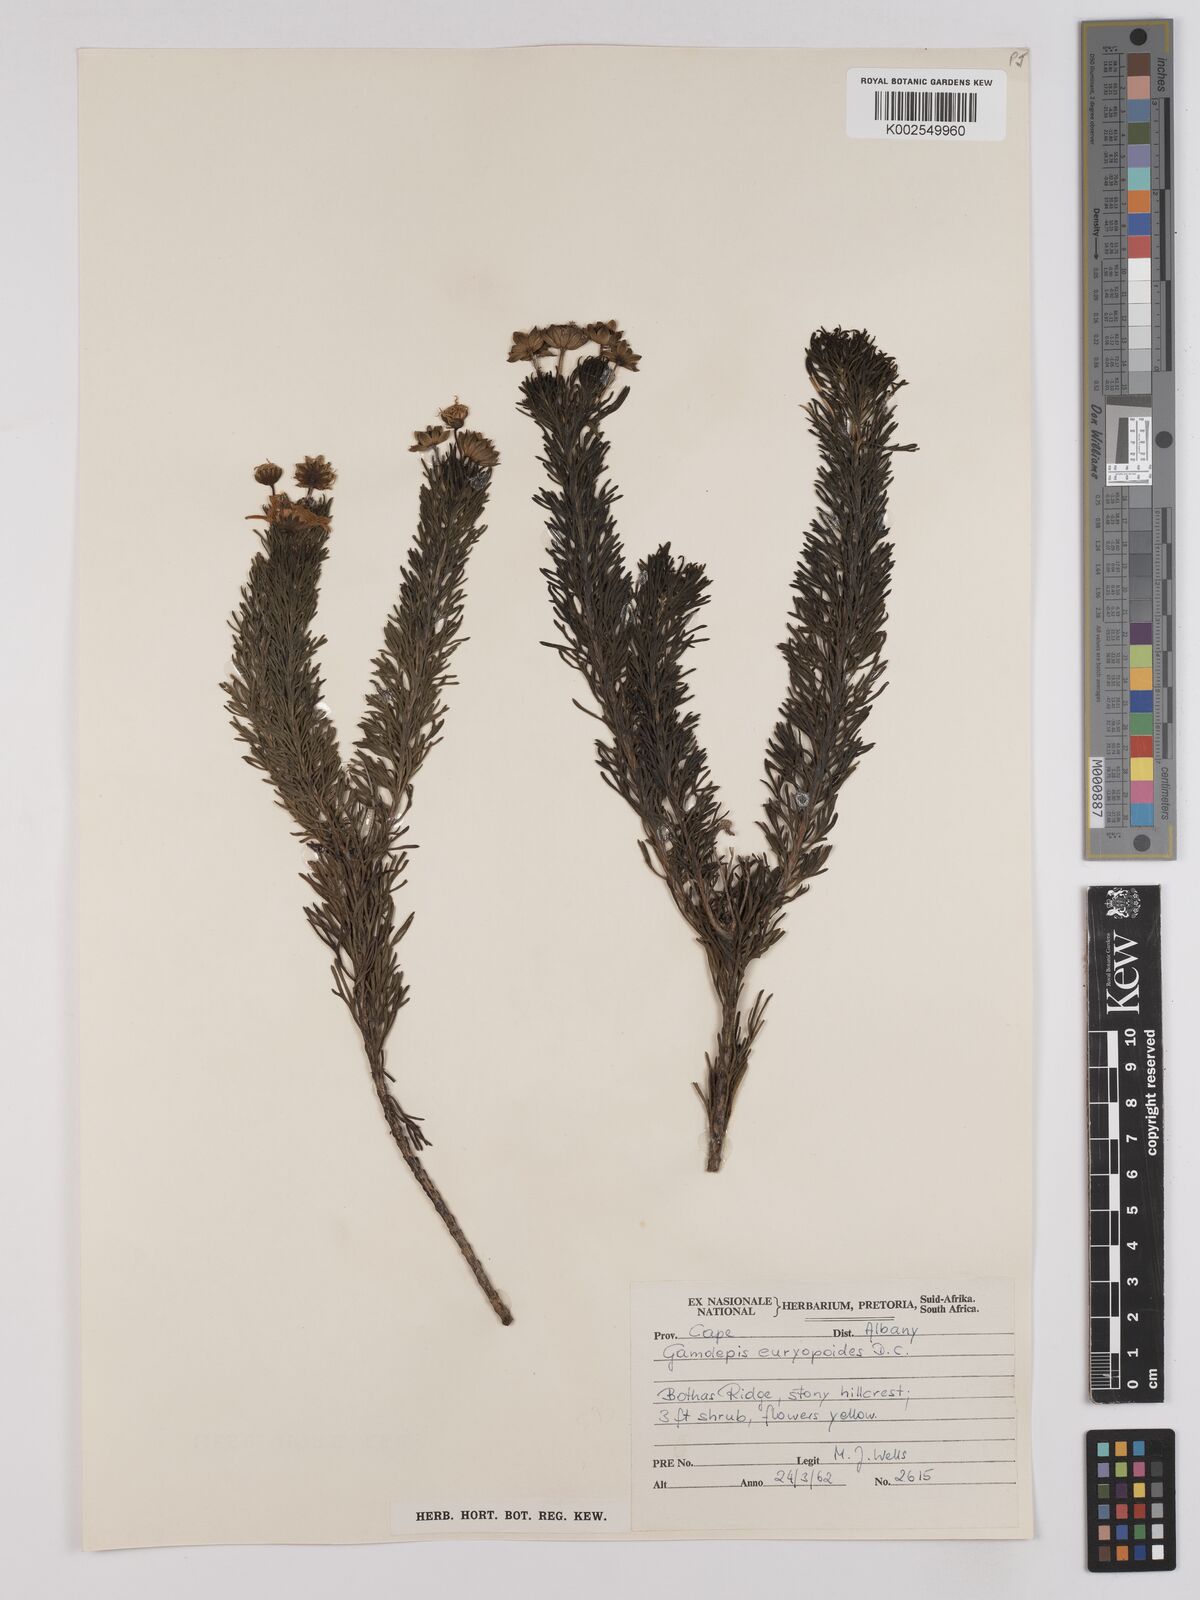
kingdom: Plantae
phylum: Tracheophyta
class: Magnoliopsida
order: Asterales
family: Asteraceae
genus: Euryops
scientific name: Euryops euryopoides
